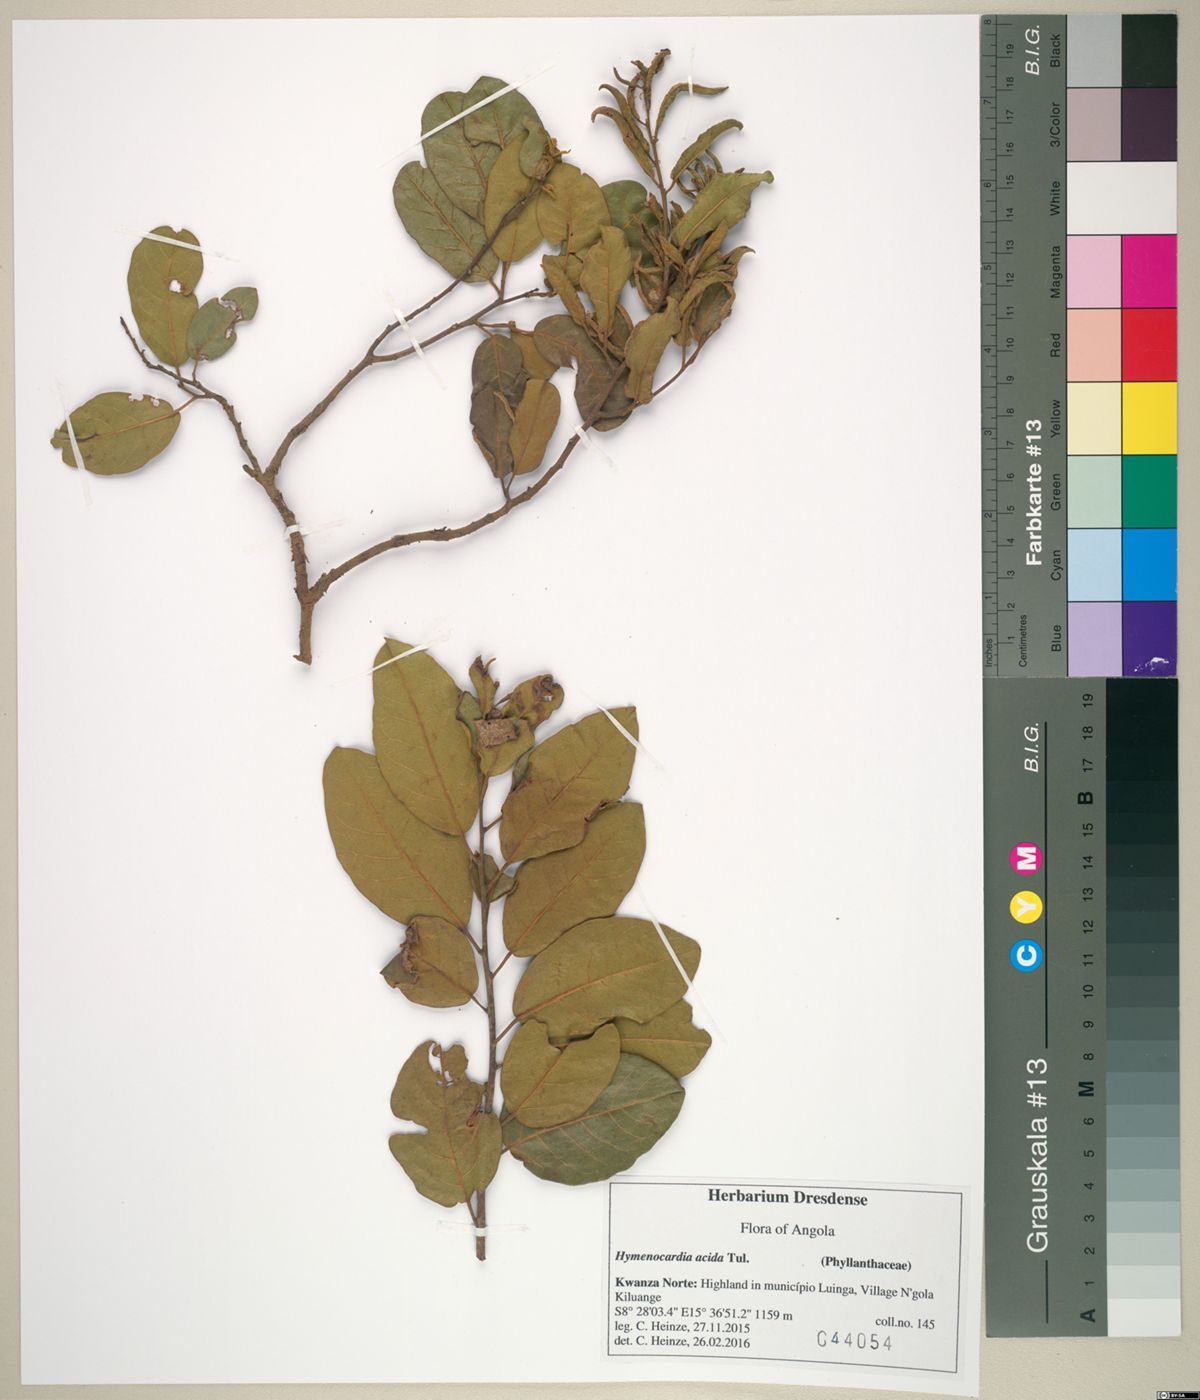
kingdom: Plantae
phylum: Tracheophyta
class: Magnoliopsida
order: Malpighiales
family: Phyllanthaceae
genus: Hymenocardia
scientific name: Hymenocardia acida
